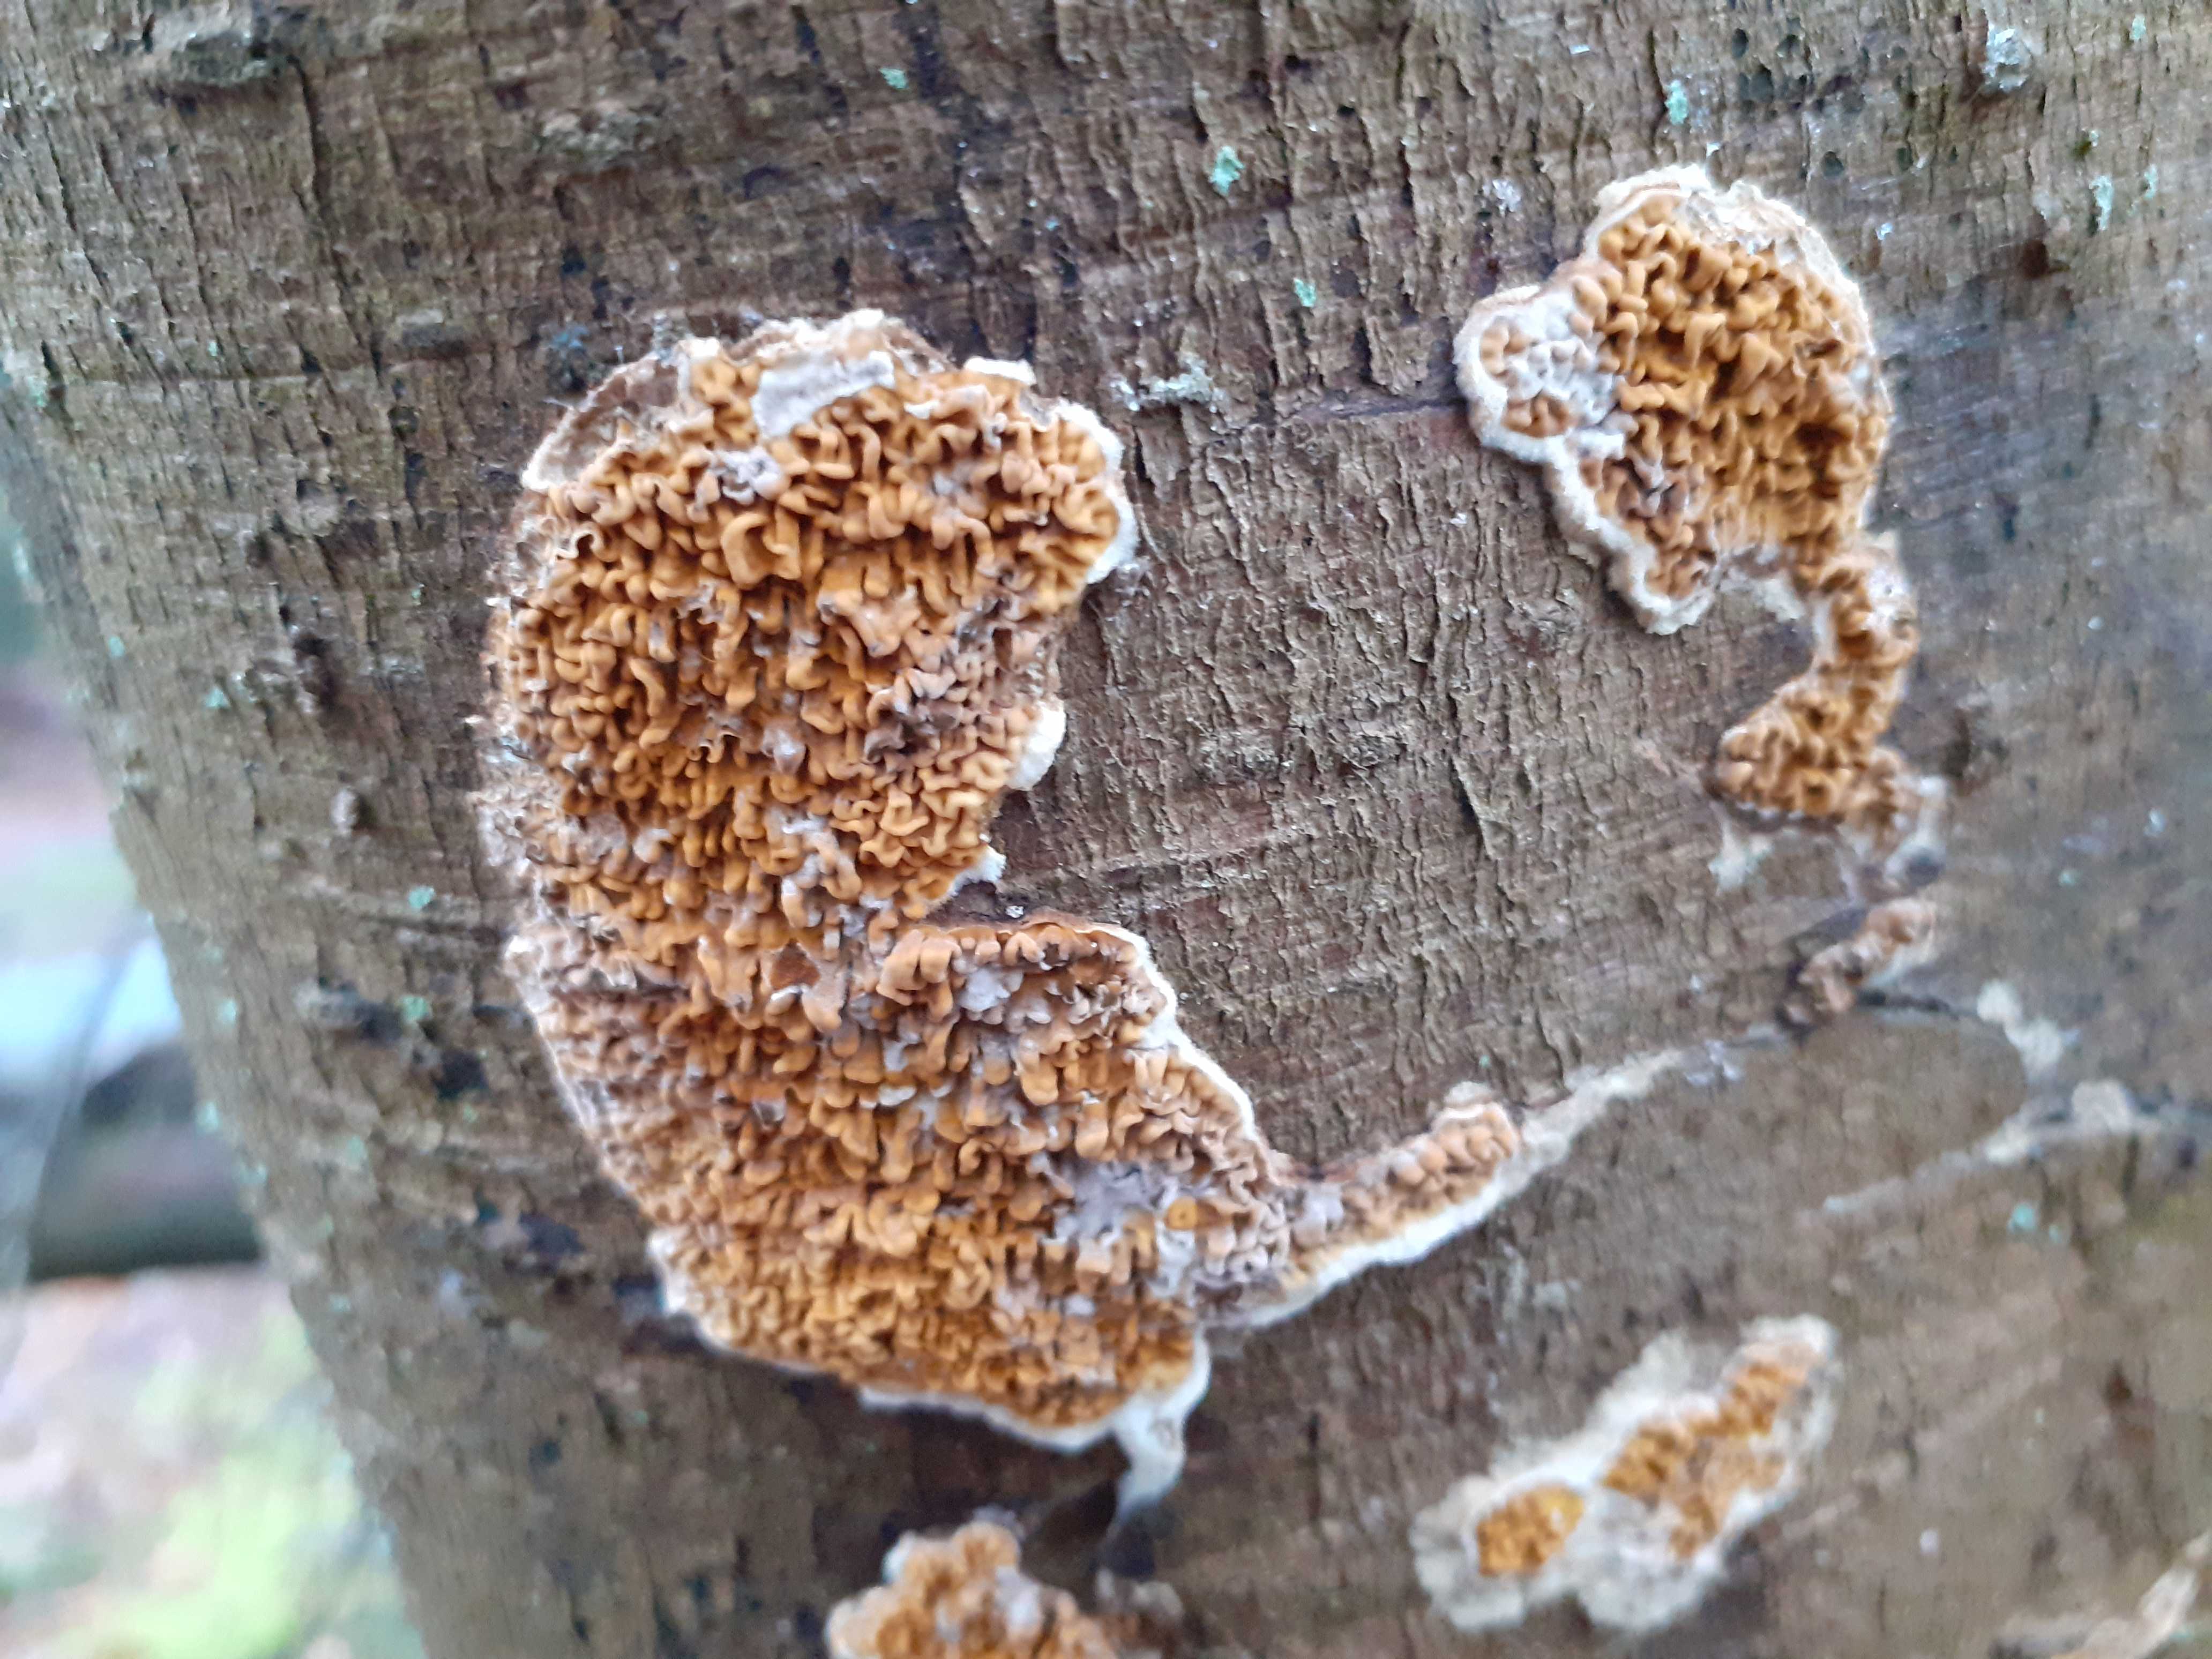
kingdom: Fungi
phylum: Basidiomycota
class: Agaricomycetes
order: Boletales
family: Serpulaceae
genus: Serpula
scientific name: Serpula himantioides
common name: tyndkødet hussvamp
